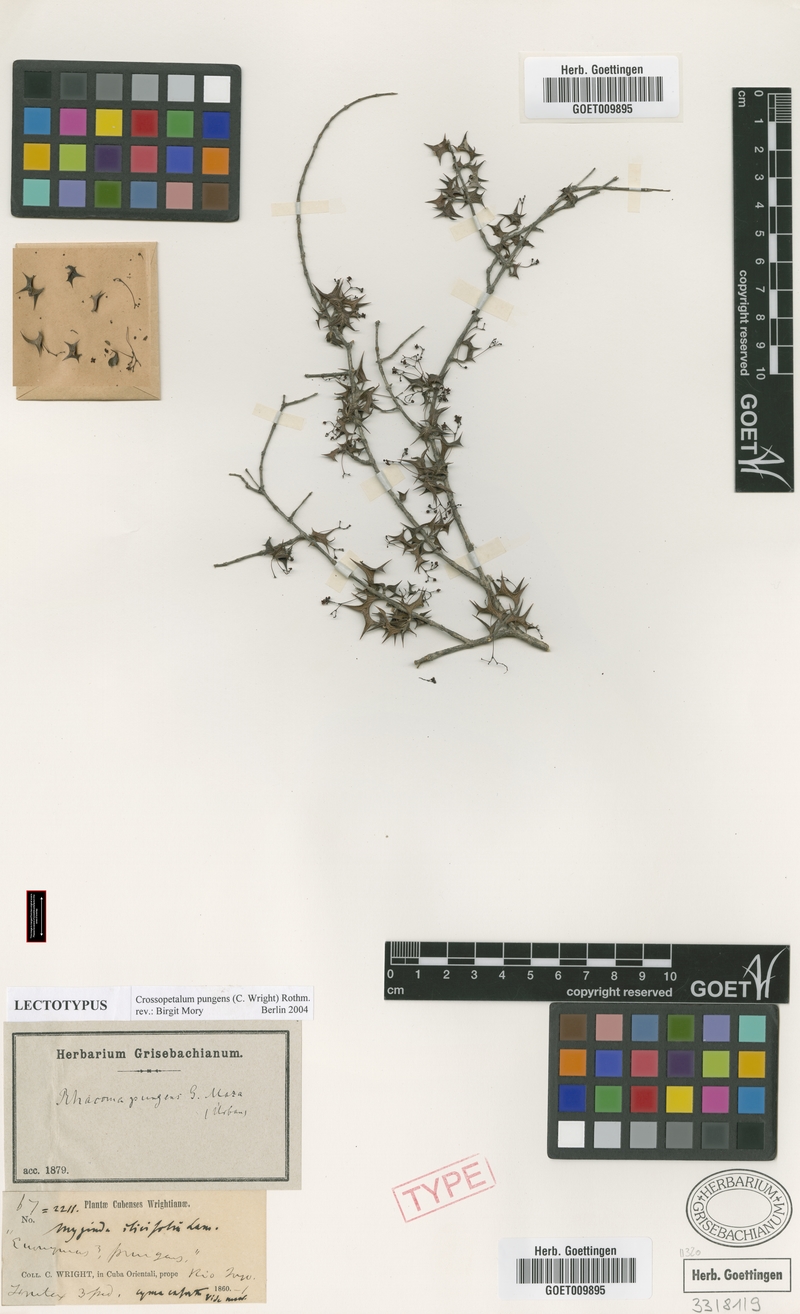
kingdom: Plantae
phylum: Tracheophyta
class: Magnoliopsida
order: Celastrales
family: Celastraceae
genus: Crossopetalum
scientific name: Crossopetalum pungens
